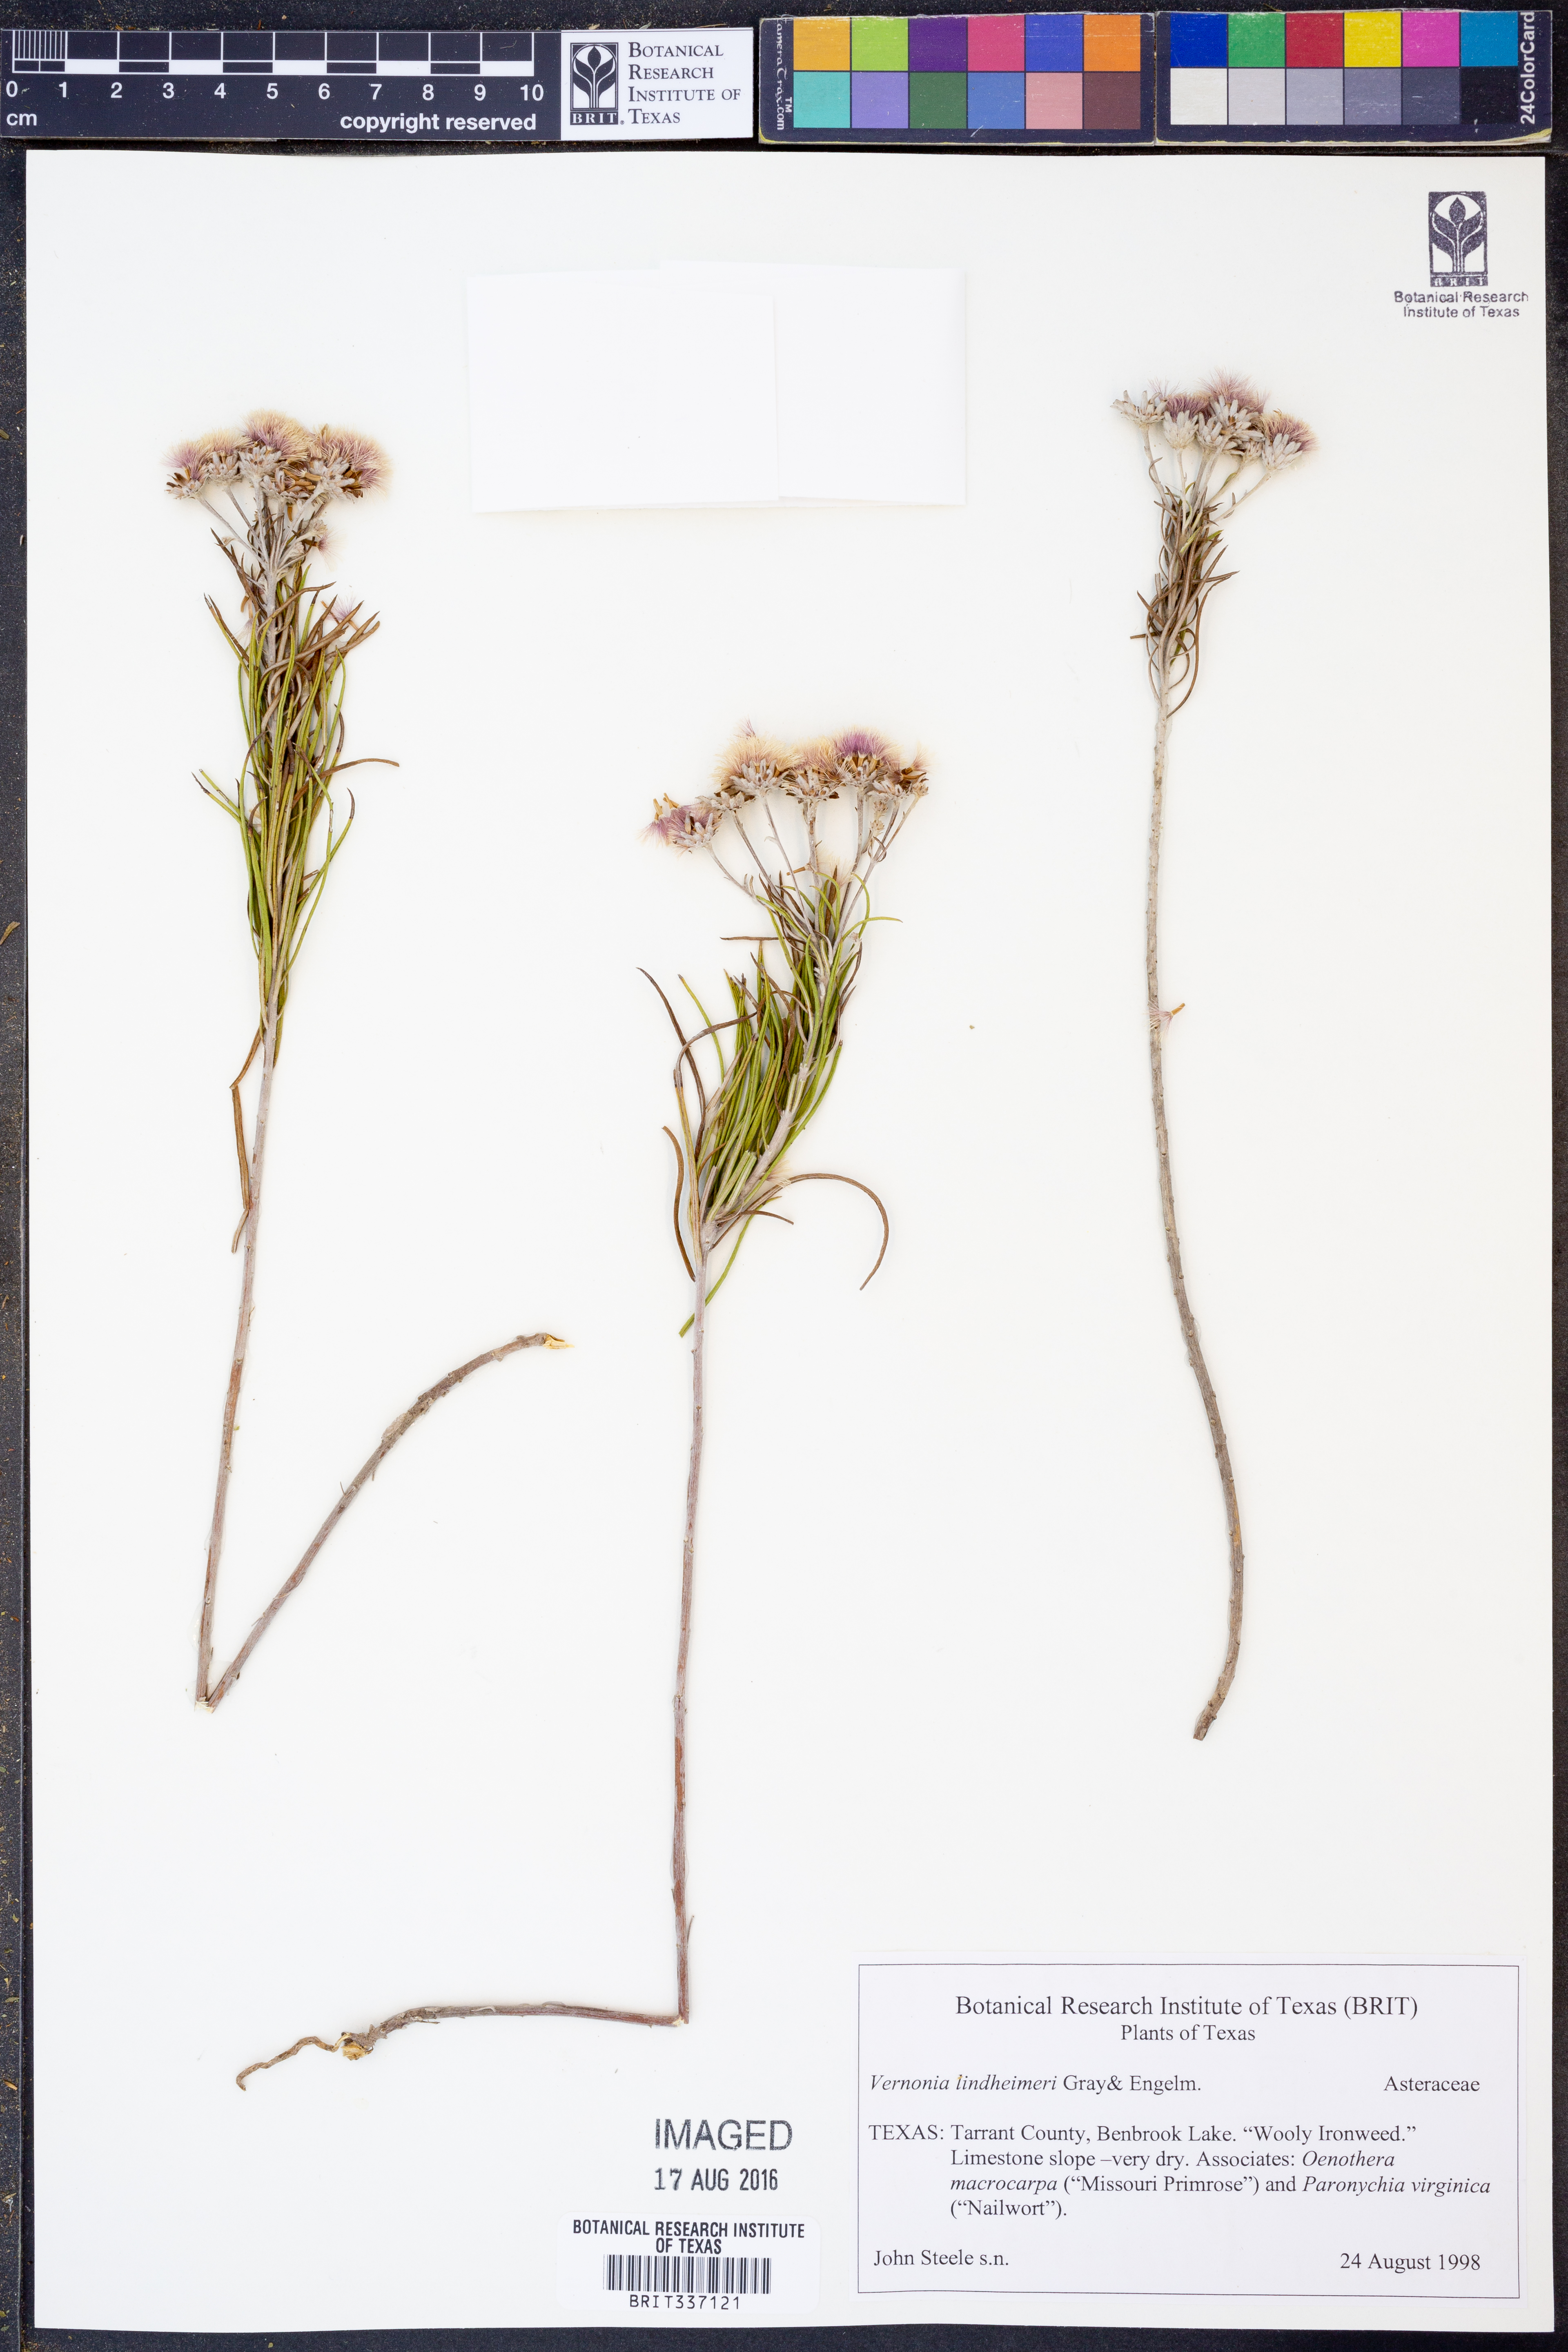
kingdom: Plantae
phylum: Tracheophyta
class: Magnoliopsida
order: Asterales
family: Asteraceae
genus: Vernonia
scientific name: Vernonia lindheimeri
